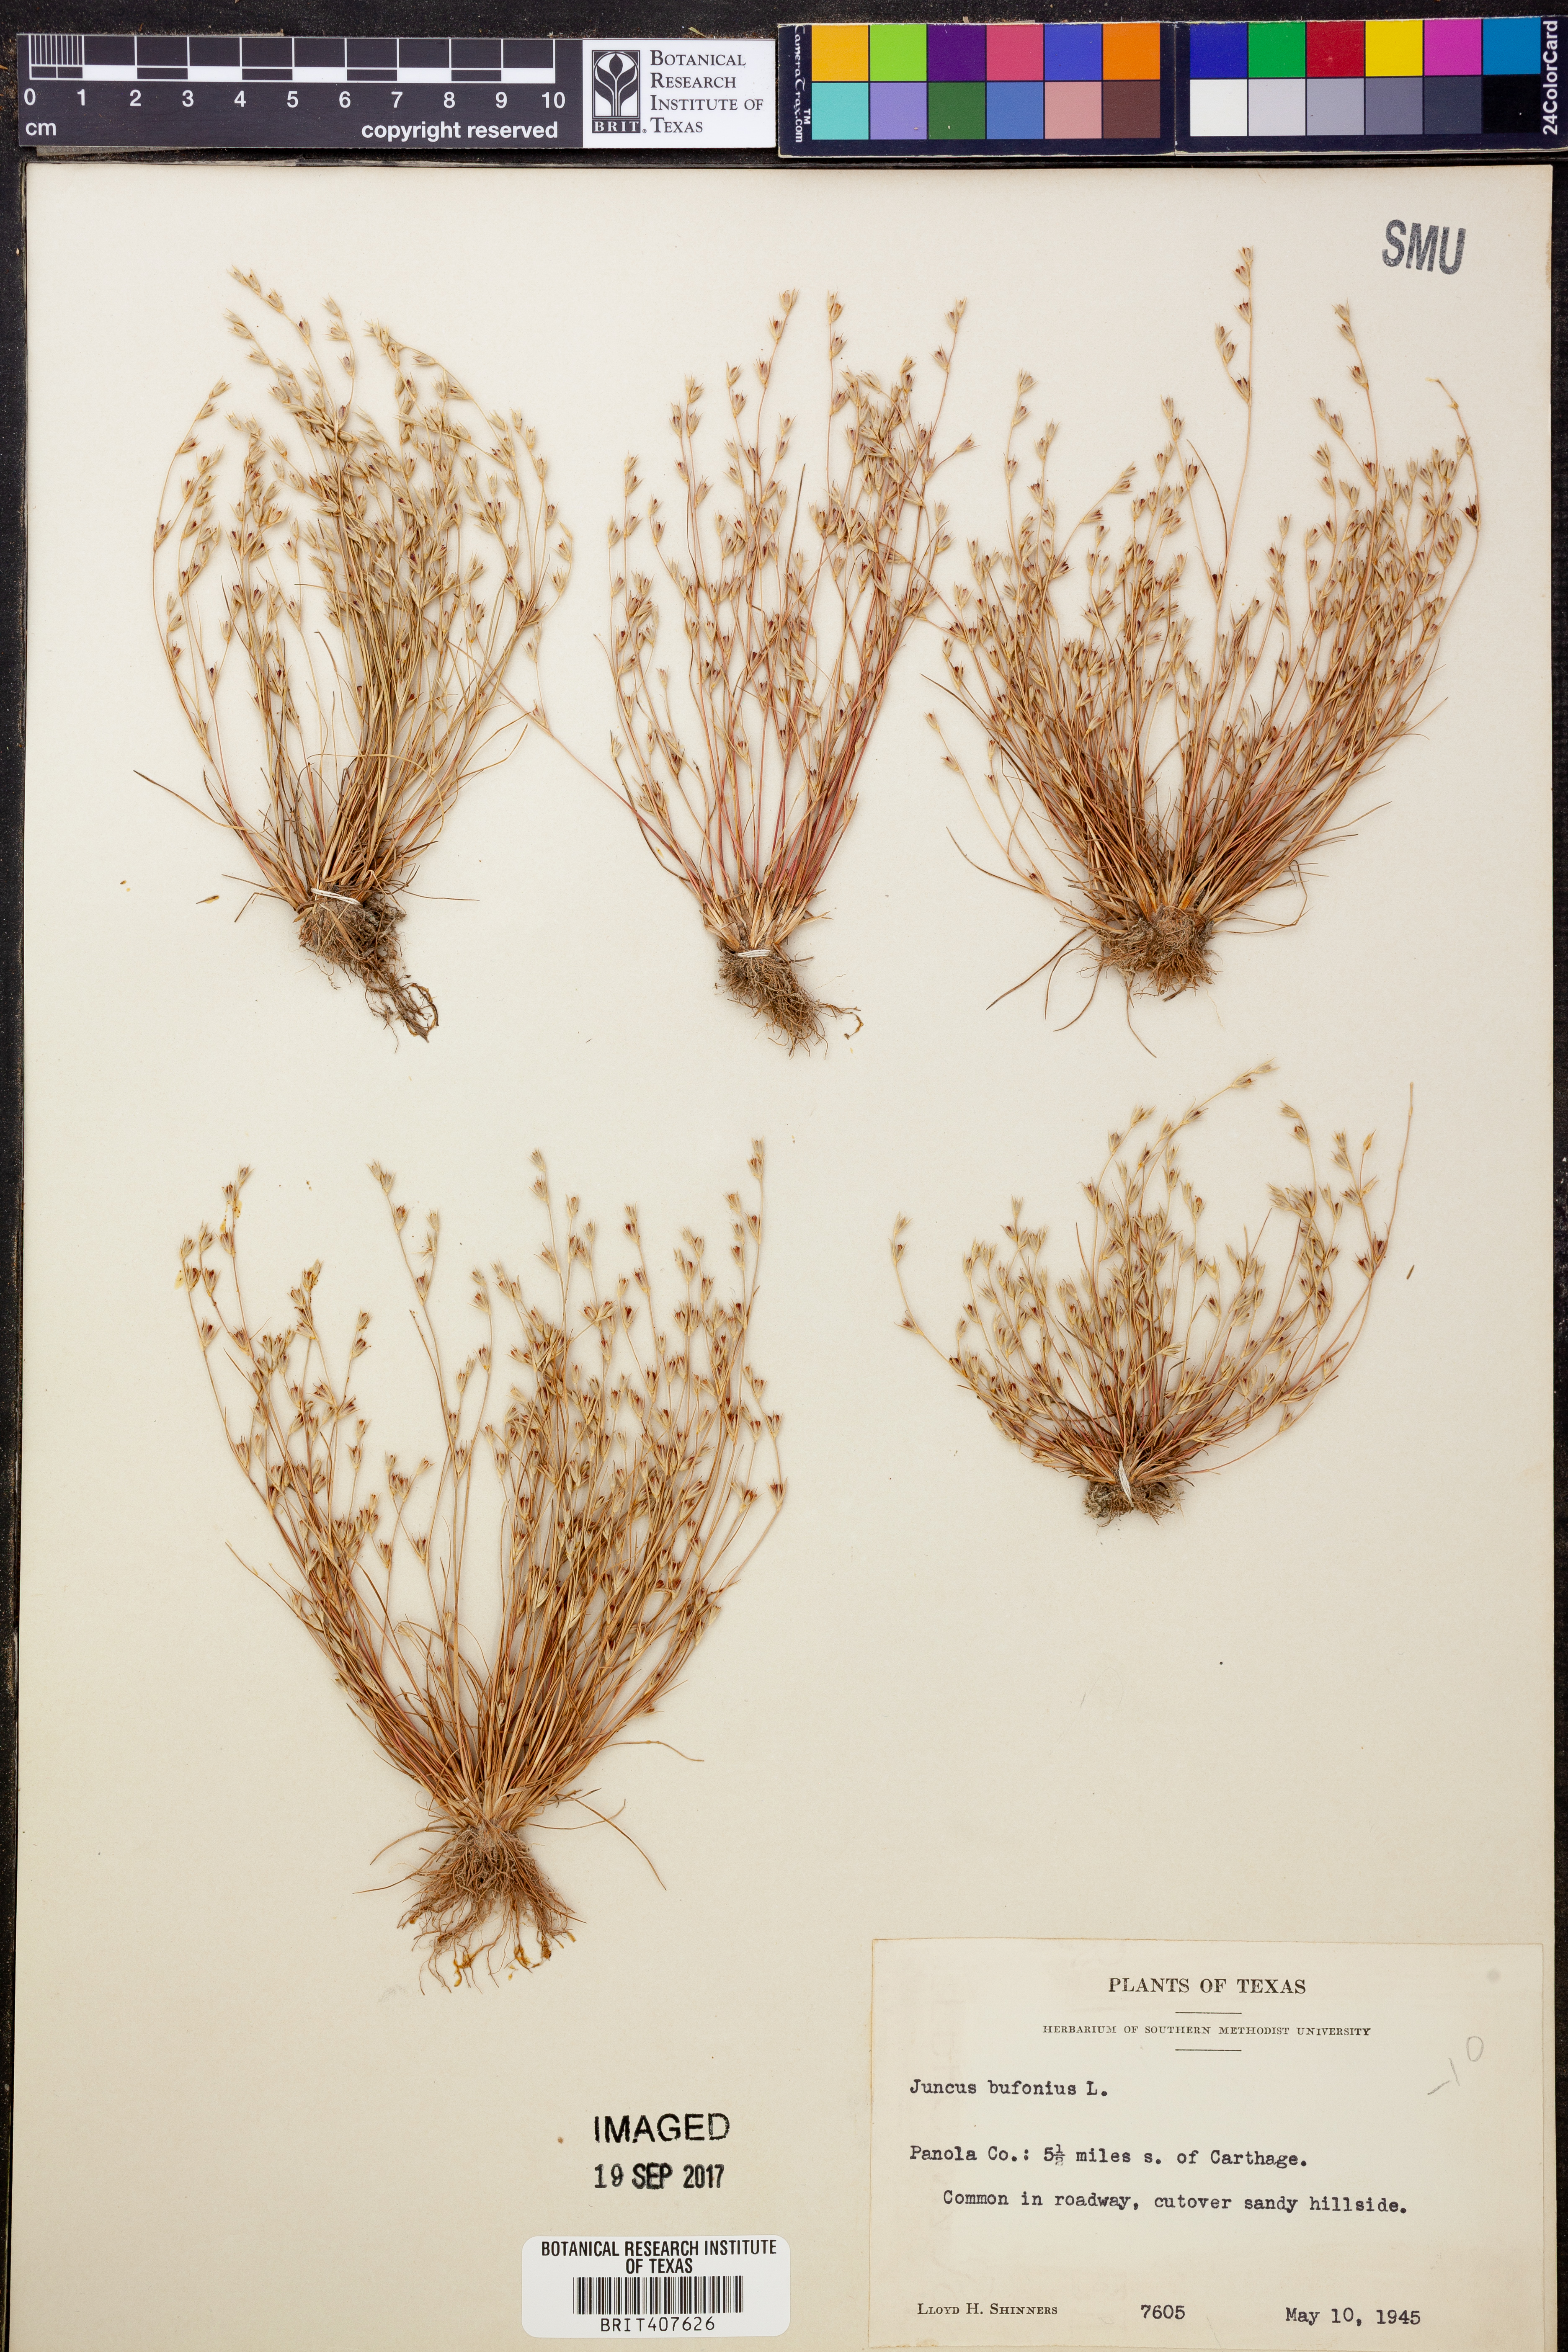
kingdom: Plantae
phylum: Tracheophyta
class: Liliopsida
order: Poales
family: Juncaceae
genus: Juncus
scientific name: Juncus bufonius
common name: Toad rush
